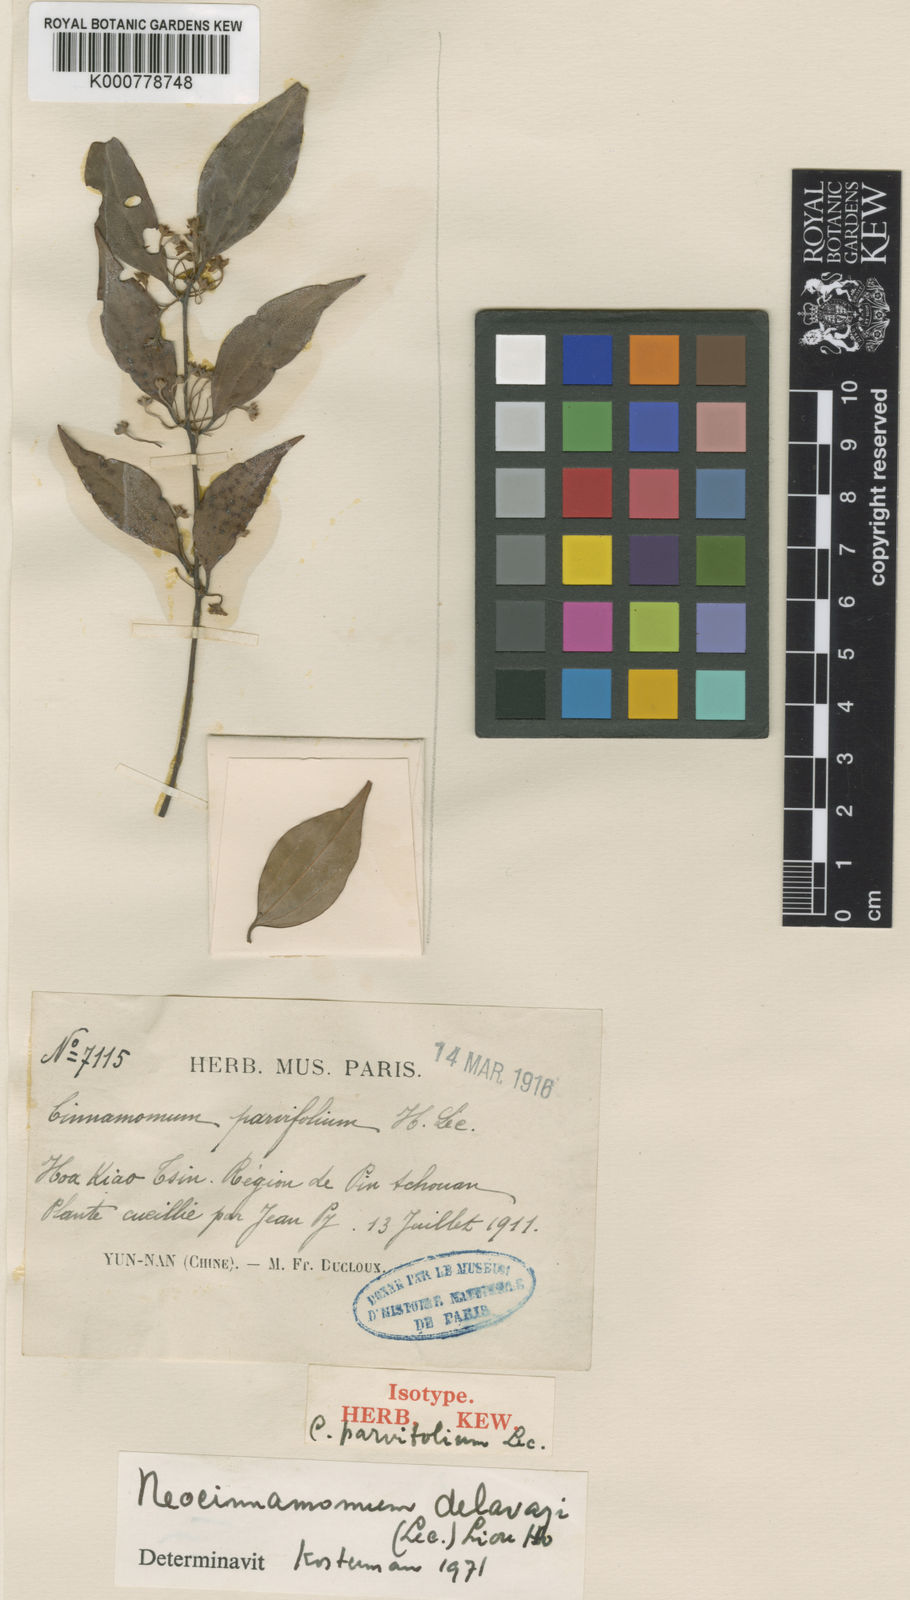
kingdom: Plantae
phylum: Tracheophyta
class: Magnoliopsida
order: Laurales
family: Lauraceae
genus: Neocinnamomum
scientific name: Neocinnamomum delavayi
